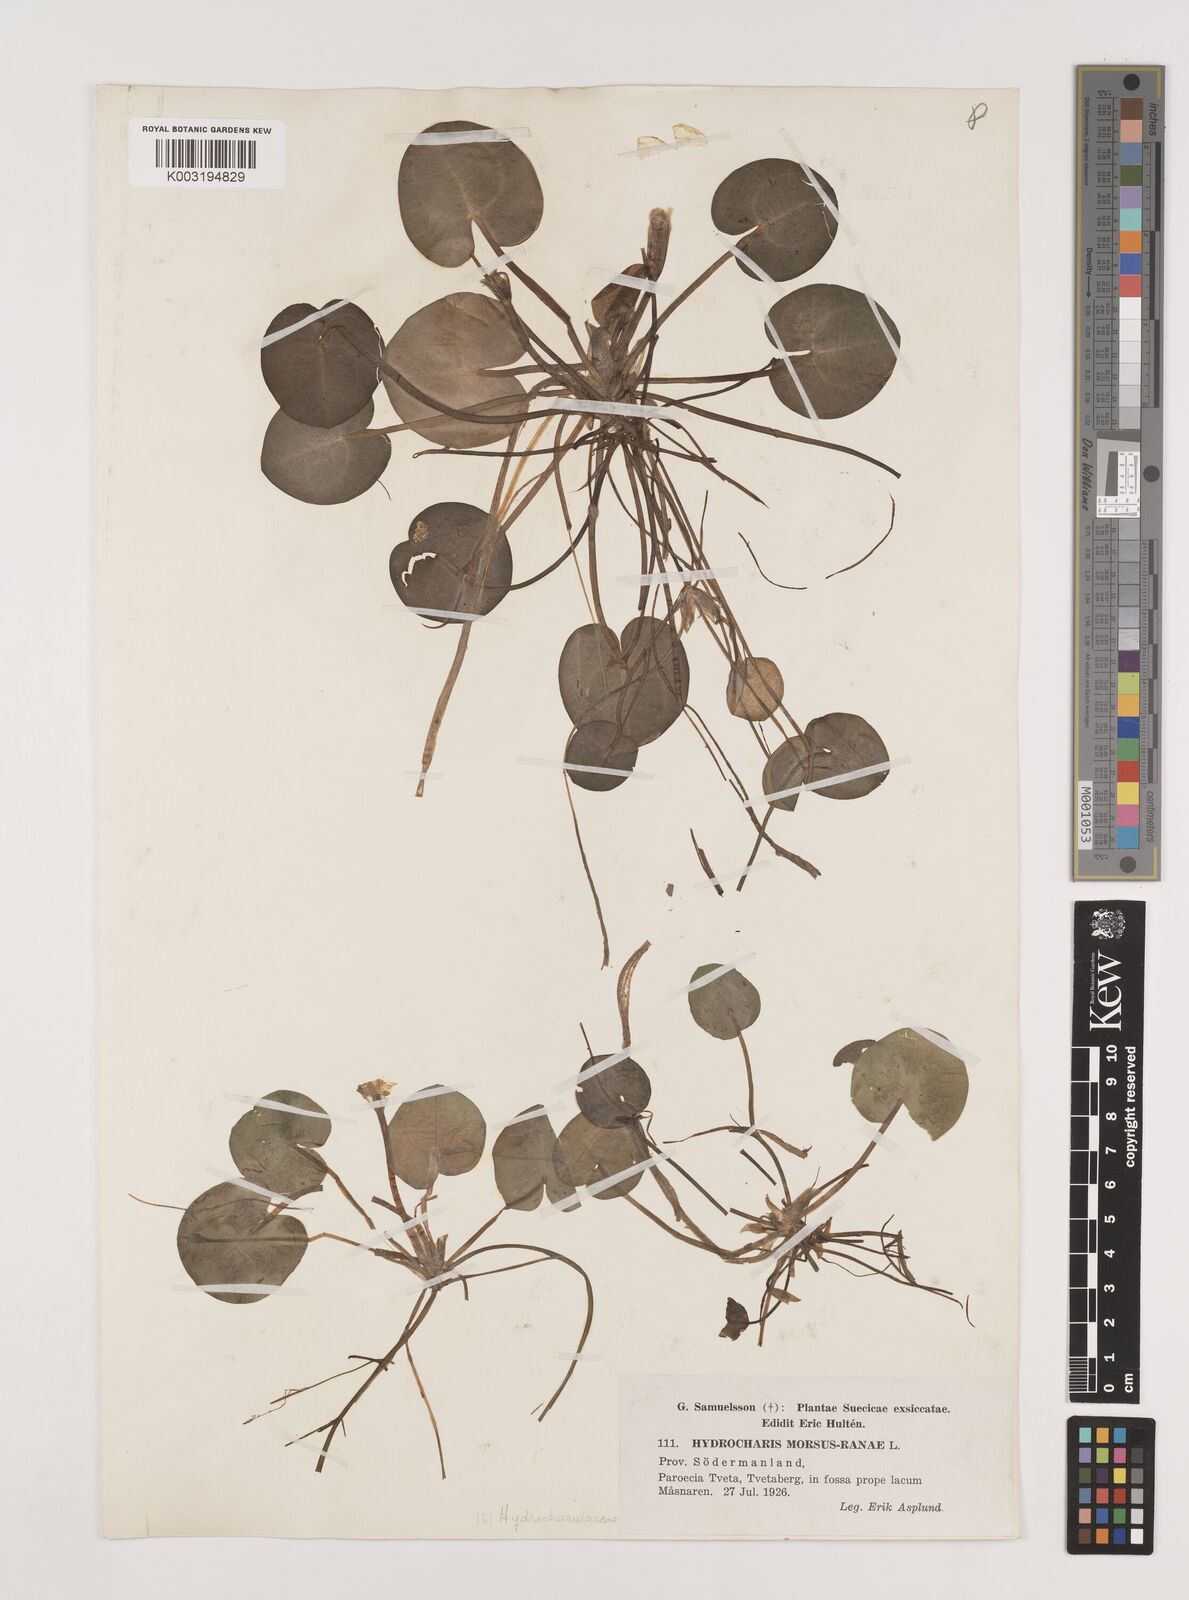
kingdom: Plantae
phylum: Tracheophyta
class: Liliopsida
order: Alismatales
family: Hydrocharitaceae
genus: Hydrocharis
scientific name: Hydrocharis morsus-ranae
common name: Frogbit
